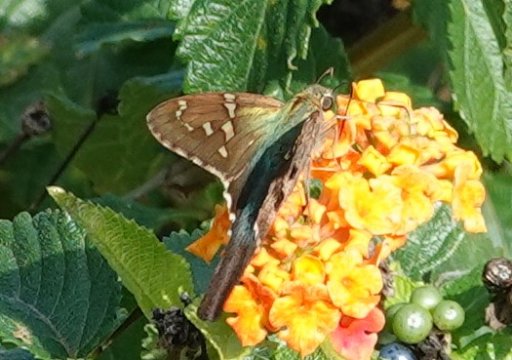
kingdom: Animalia
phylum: Arthropoda
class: Insecta
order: Lepidoptera
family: Hesperiidae
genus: Urbanus
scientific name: Urbanus proteus
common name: Long-tailed Skipper
